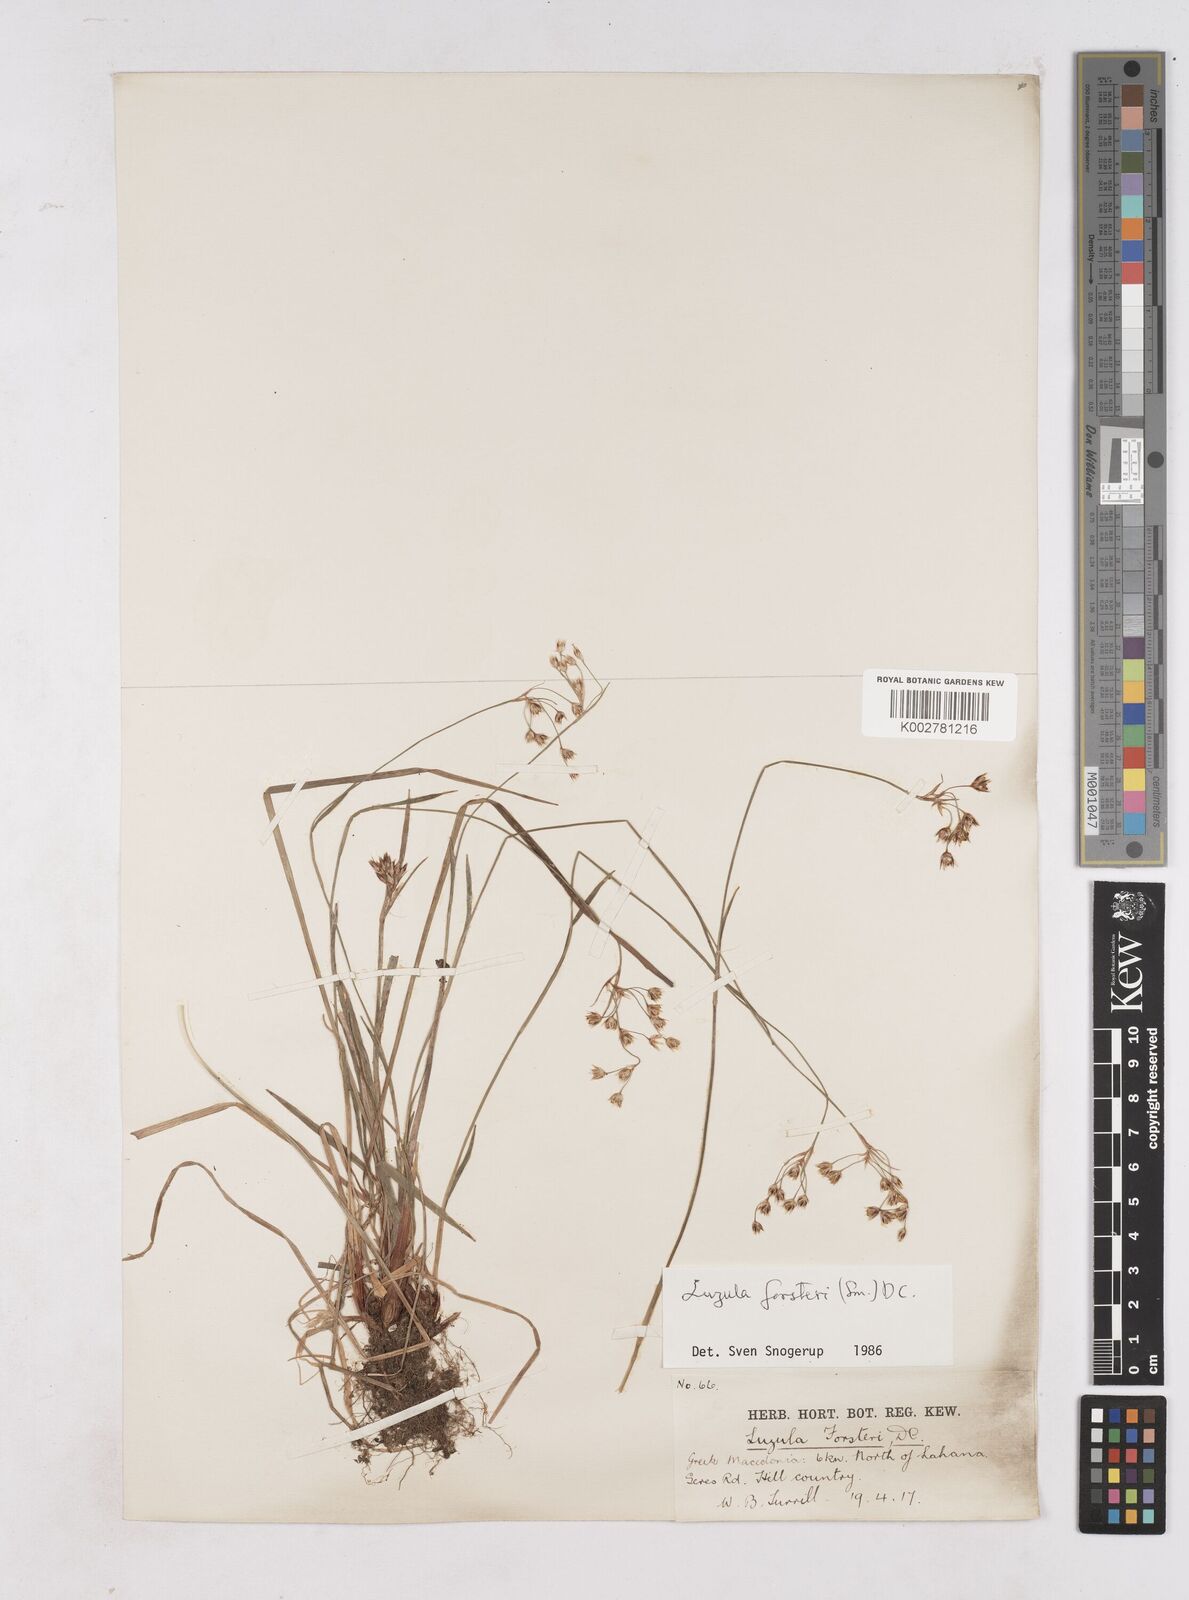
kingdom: Plantae
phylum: Tracheophyta
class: Liliopsida
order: Poales
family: Juncaceae
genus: Luzula
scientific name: Luzula forsteri
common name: Southern wood-rush
